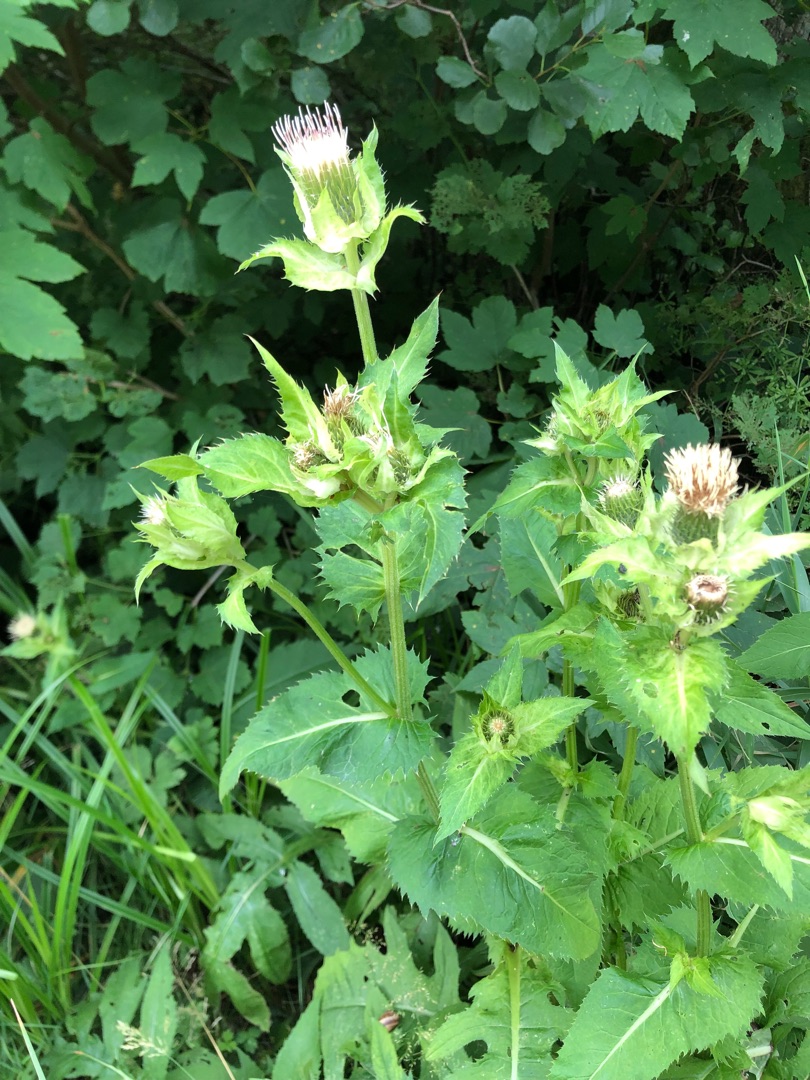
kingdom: Plantae
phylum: Tracheophyta
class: Magnoliopsida
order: Asterales
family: Asteraceae
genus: Cirsium
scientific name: Cirsium oleraceum
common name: Kål-tidsel
